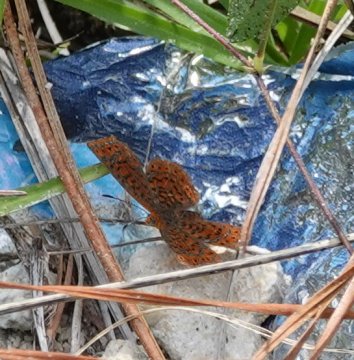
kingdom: Animalia
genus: Calephelis
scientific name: Calephelis virginiensis
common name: Little Metalmark
